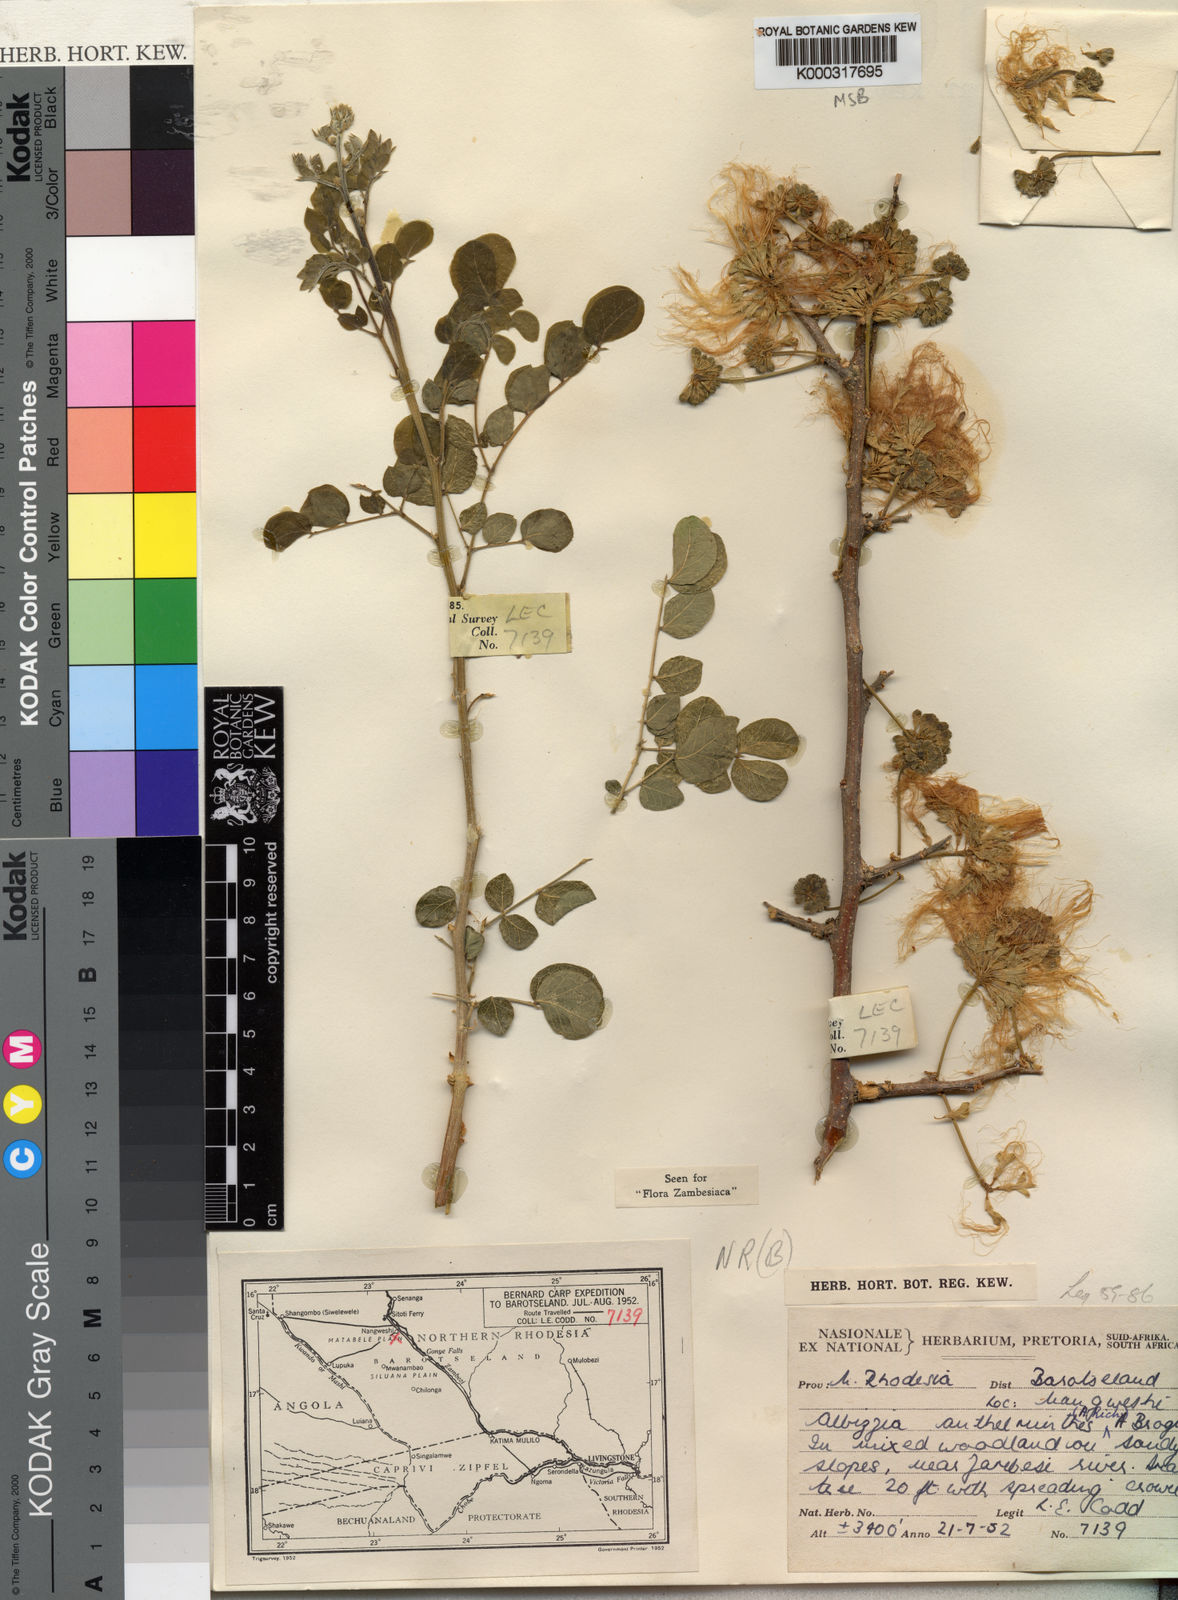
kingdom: Plantae
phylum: Tracheophyta
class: Magnoliopsida
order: Fabales
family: Fabaceae
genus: Albizia
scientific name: Albizia anthelmintica
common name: Worm-bark false-thorn
